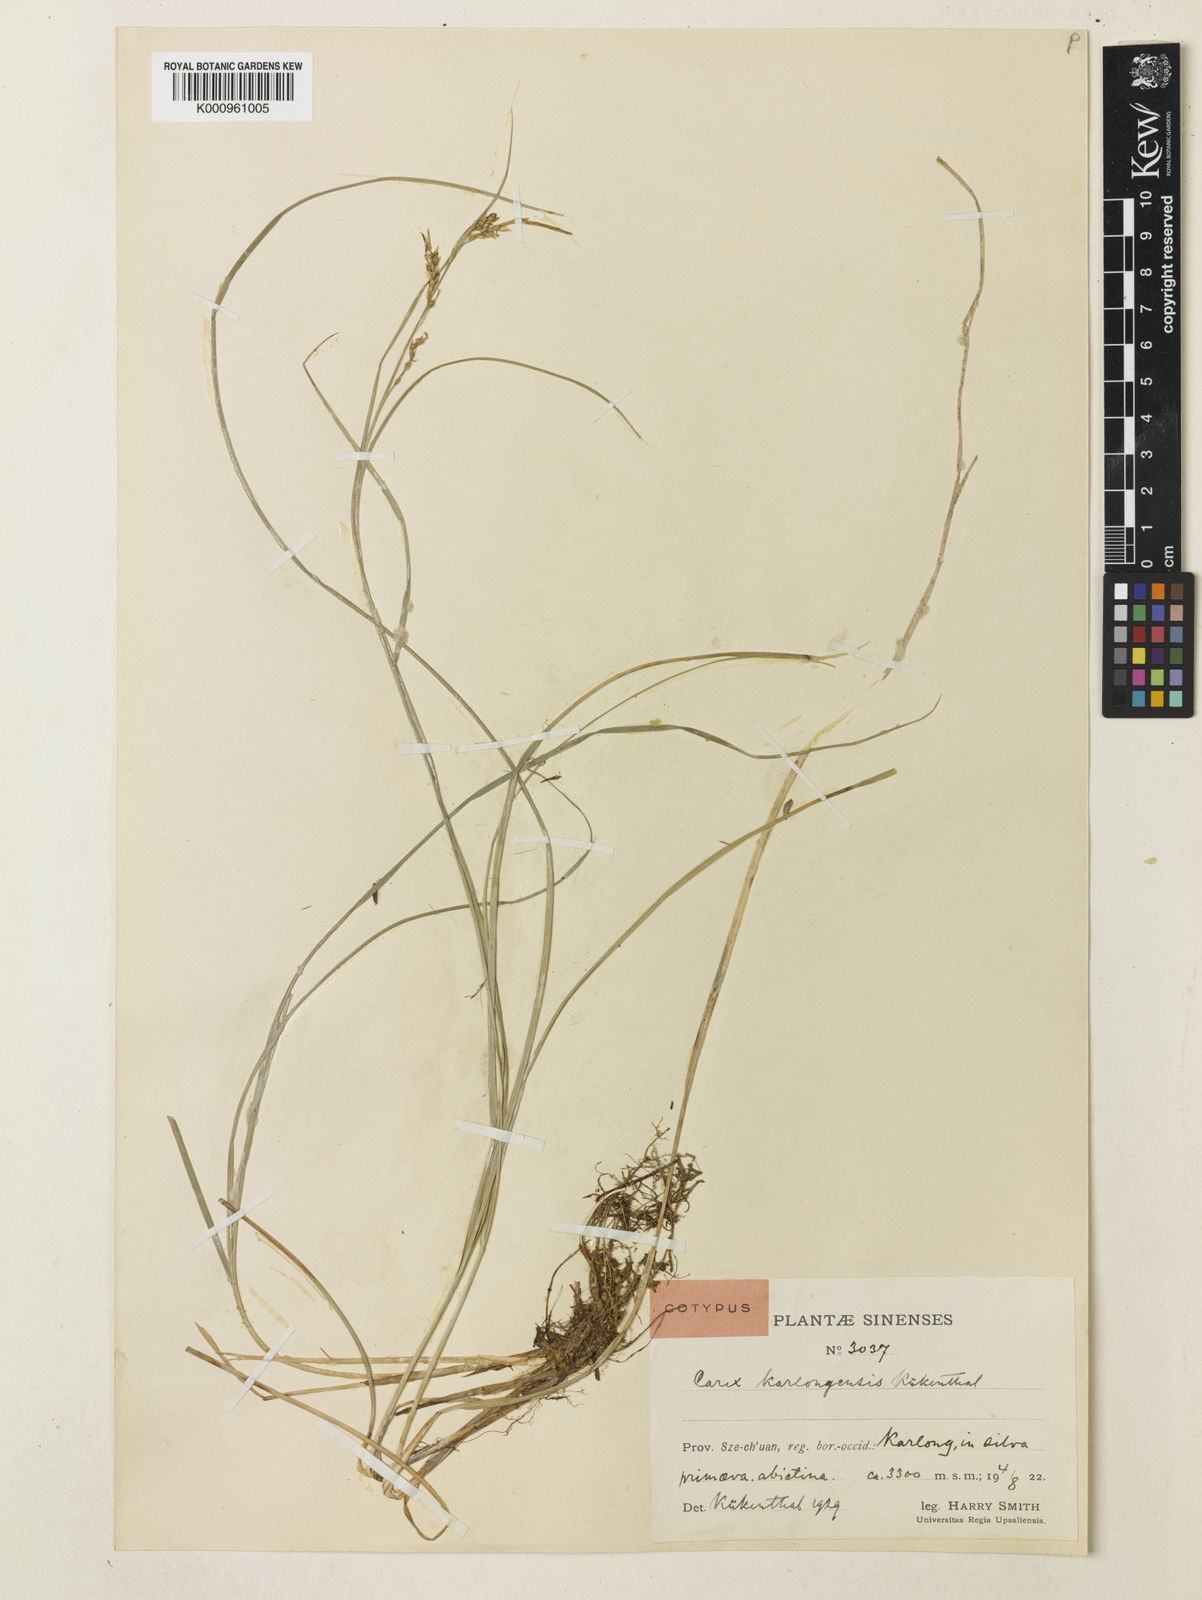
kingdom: Plantae
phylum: Tracheophyta
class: Liliopsida
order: Poales
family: Cyperaceae
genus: Carex
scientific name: Carex
